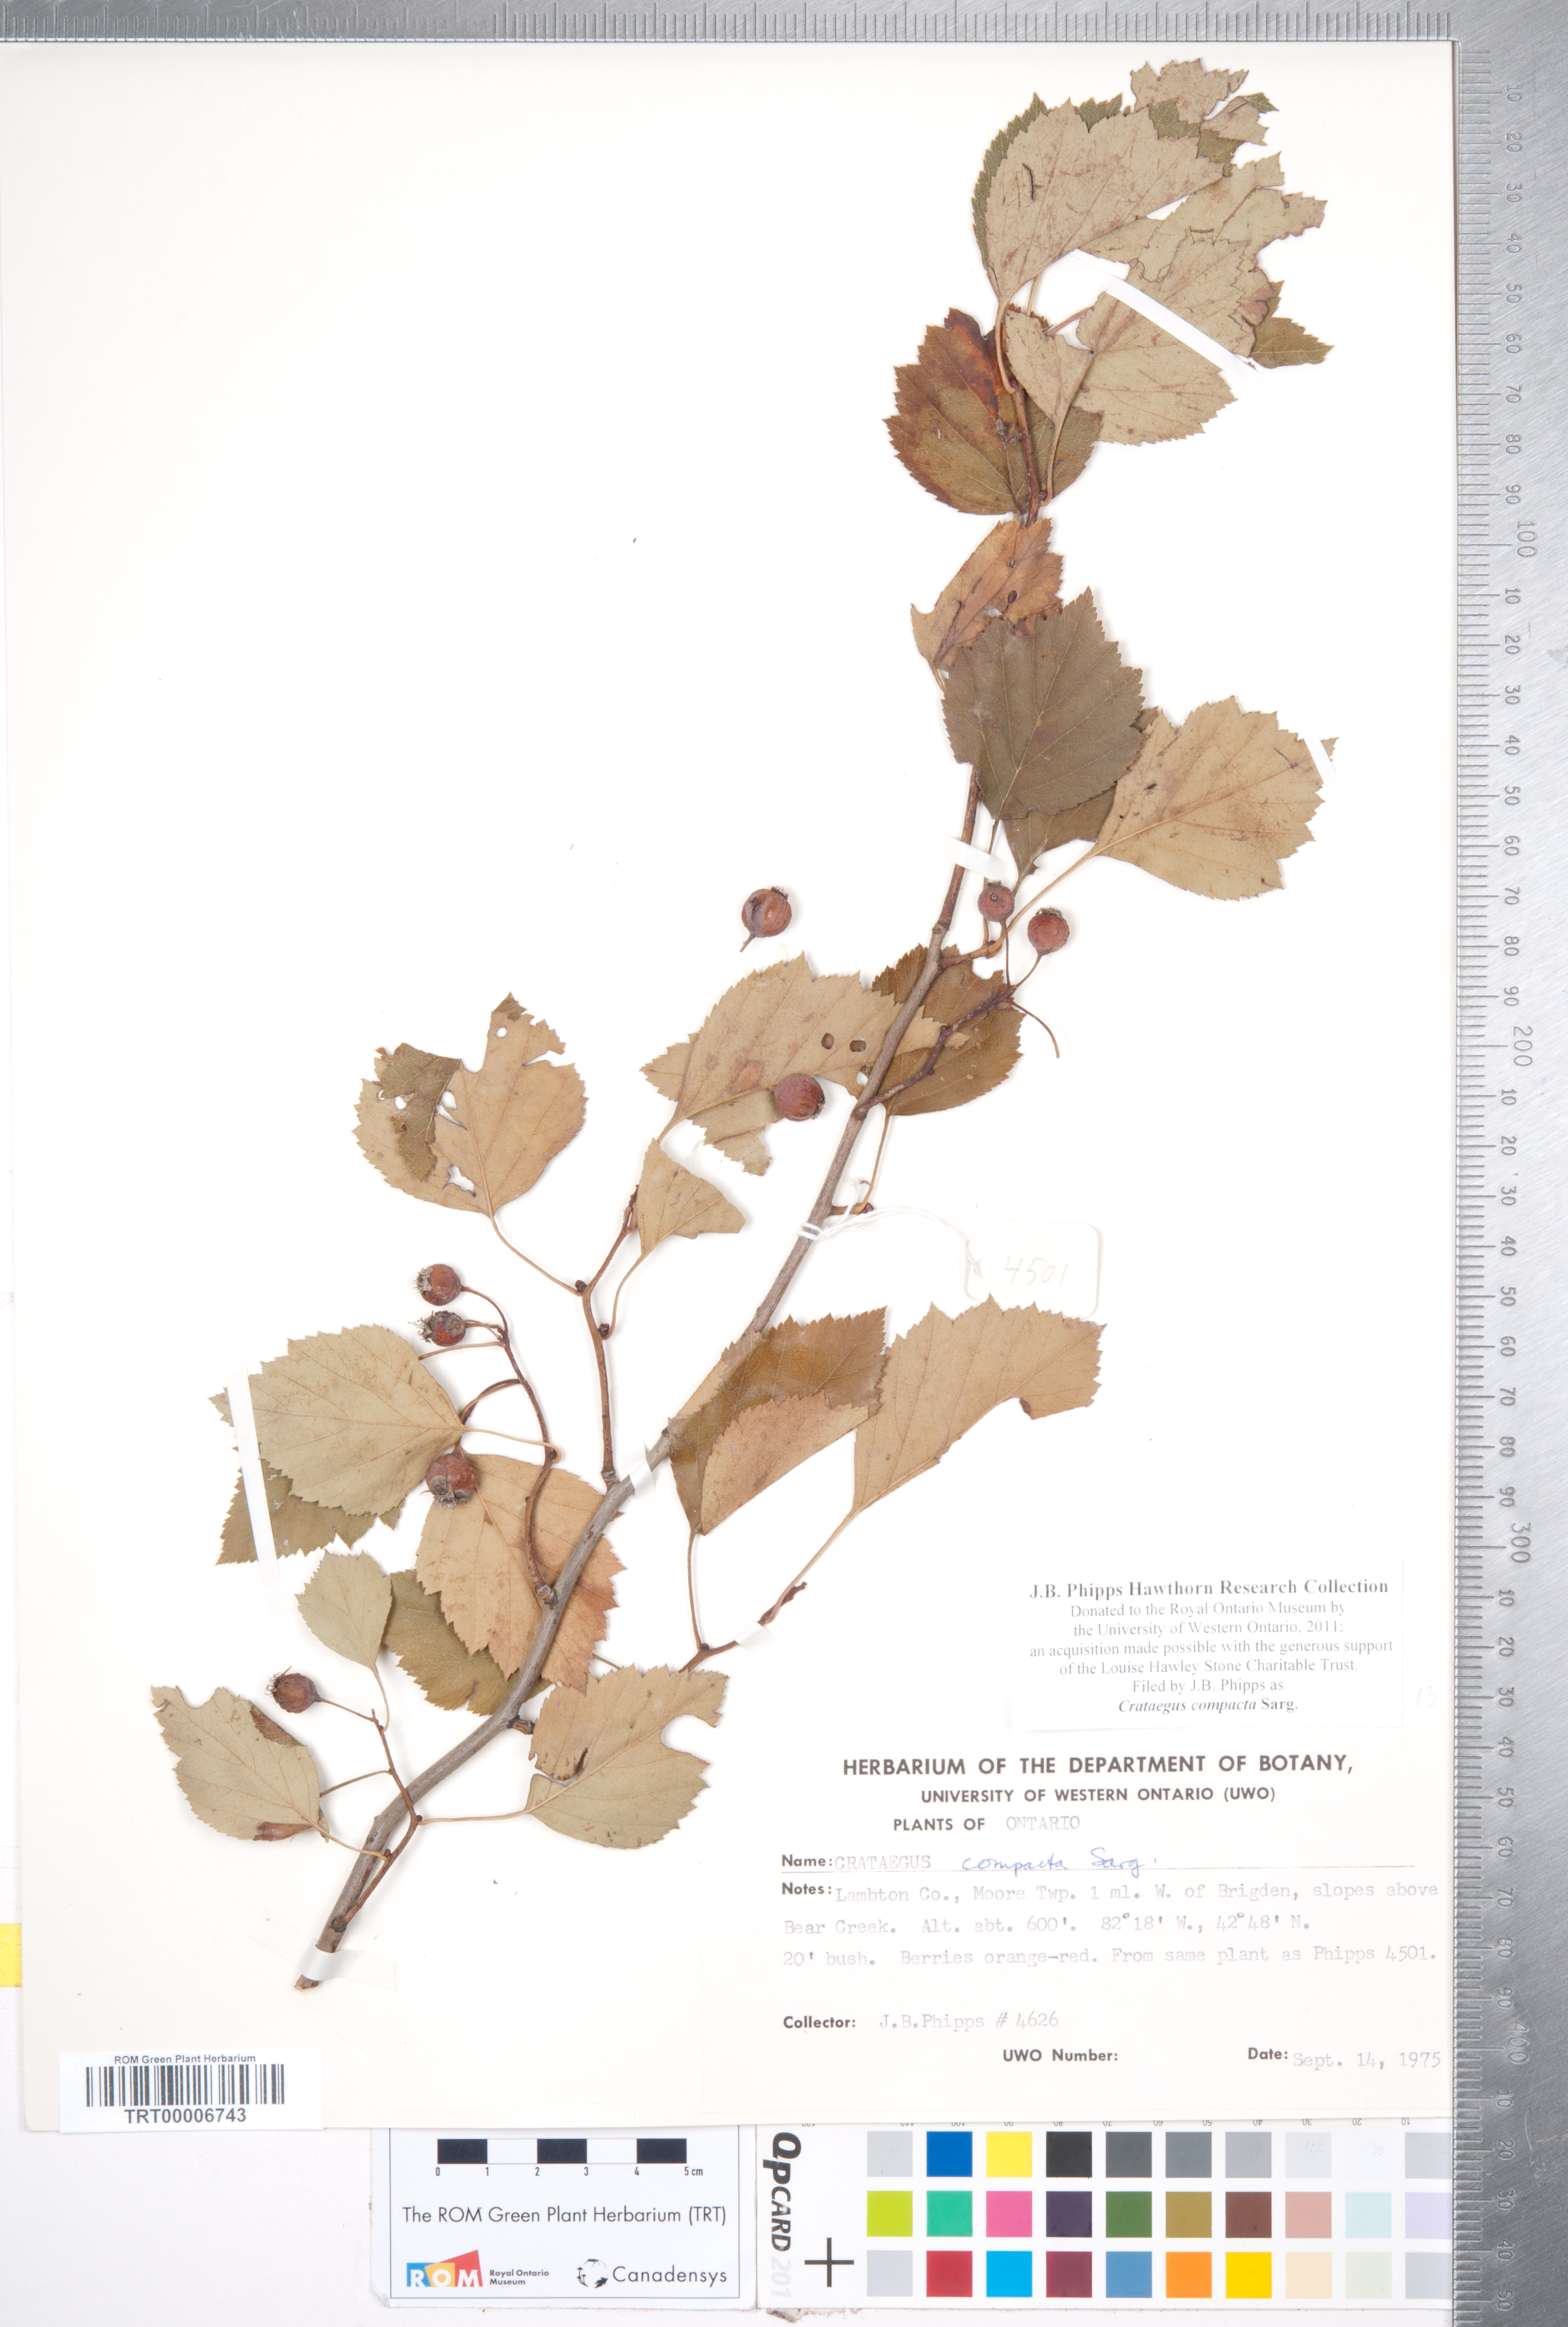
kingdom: Plantae
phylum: Tracheophyta
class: Magnoliopsida
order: Rosales
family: Rosaceae
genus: Crataegus
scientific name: Crataegus compacta
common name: Clustered hawthorn
